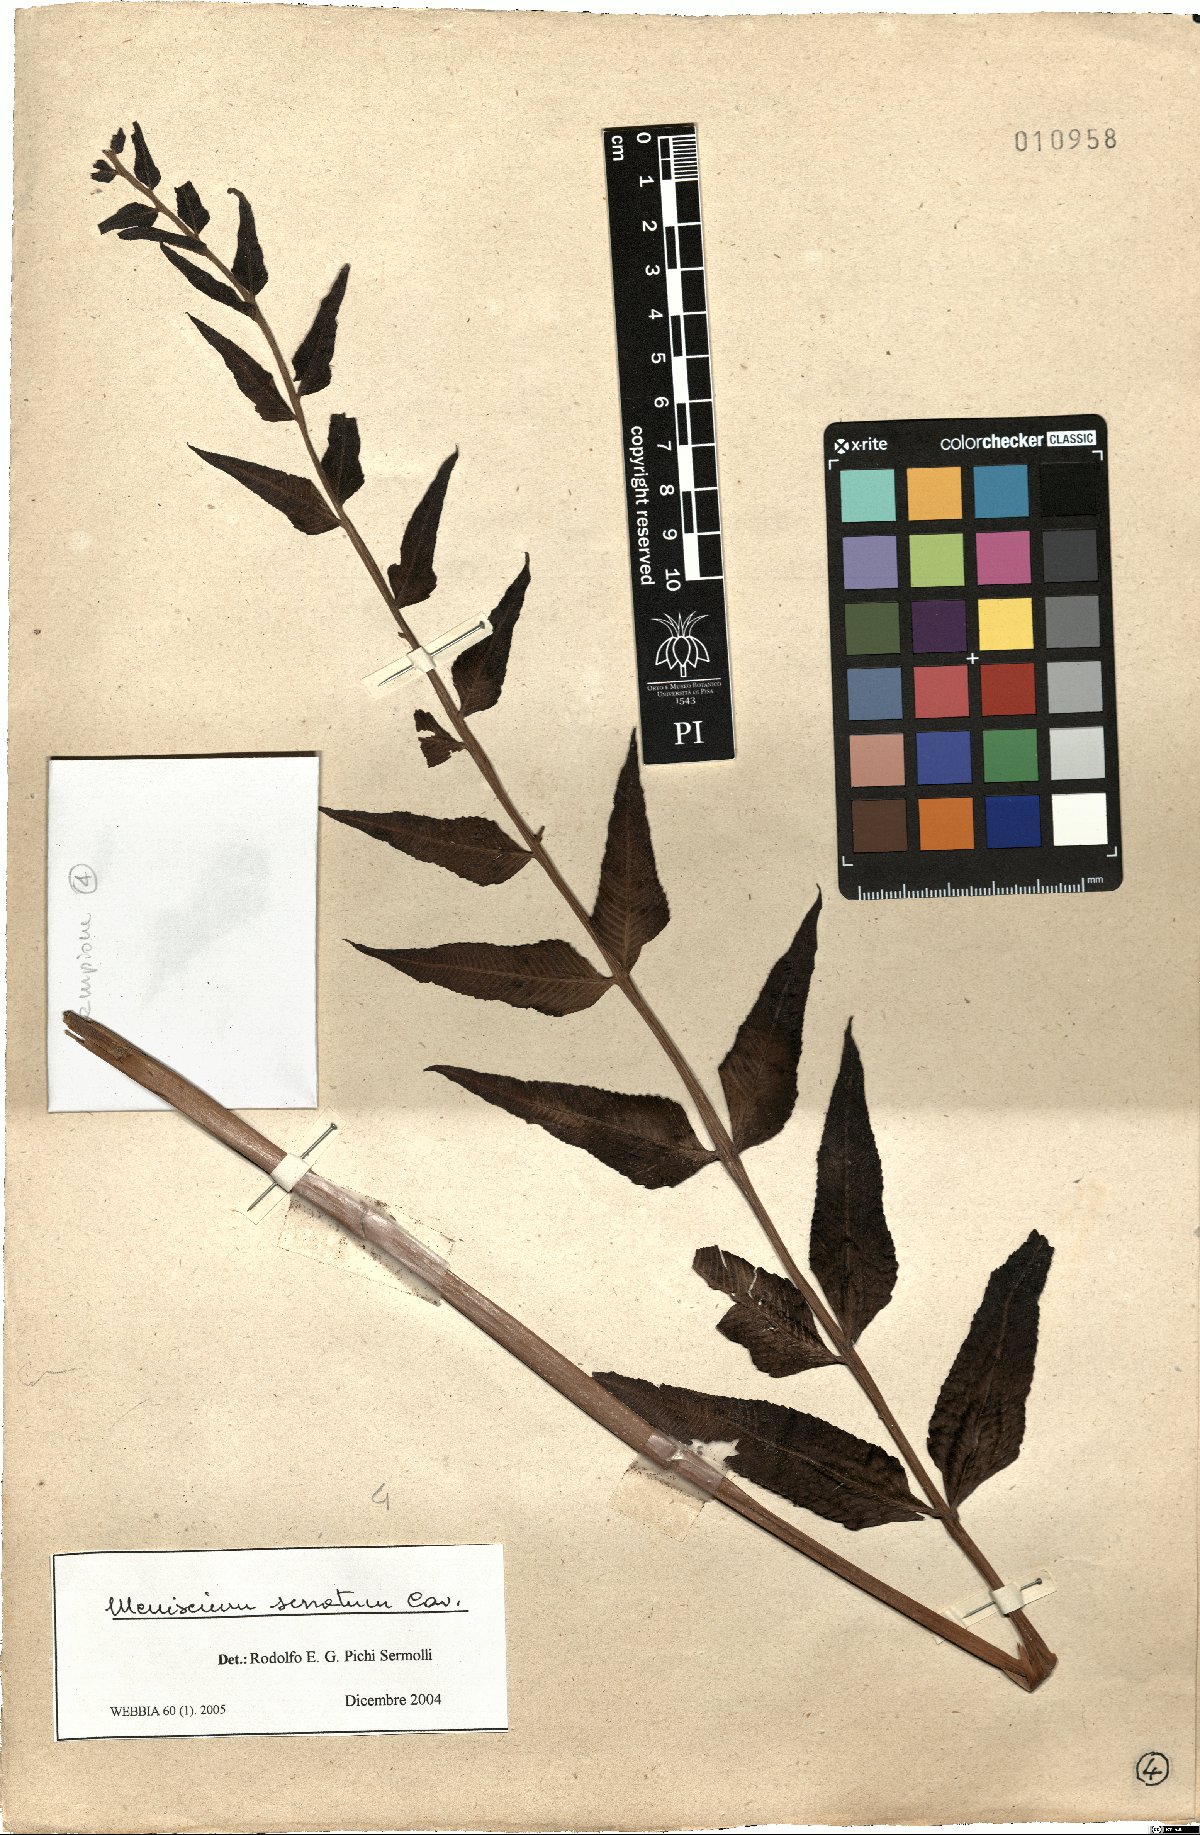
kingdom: Plantae
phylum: Tracheophyta
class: Polypodiopsida
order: Polypodiales
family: Thelypteridaceae
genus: Meniscium
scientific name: Meniscium serratum
